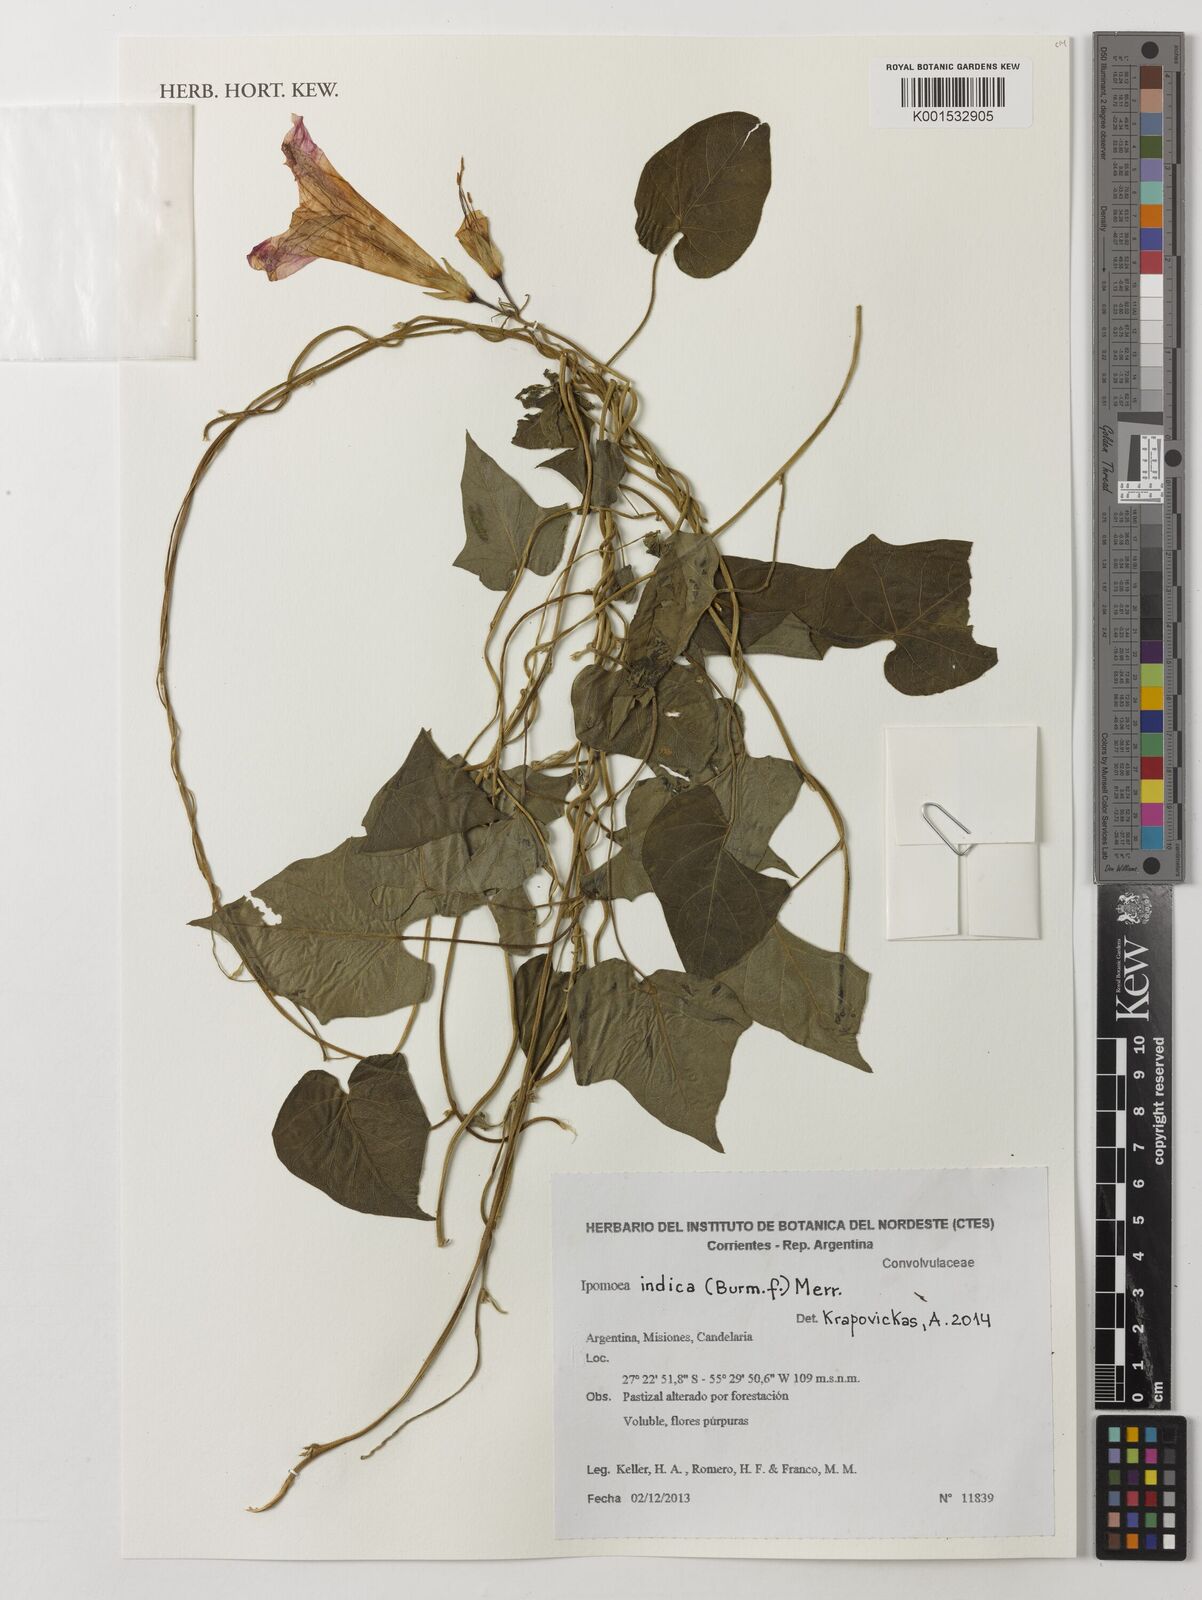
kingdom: Plantae
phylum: Tracheophyta
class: Magnoliopsida
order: Solanales
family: Convolvulaceae
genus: Ipomoea
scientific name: Ipomoea indica
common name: Blue dawnflower
